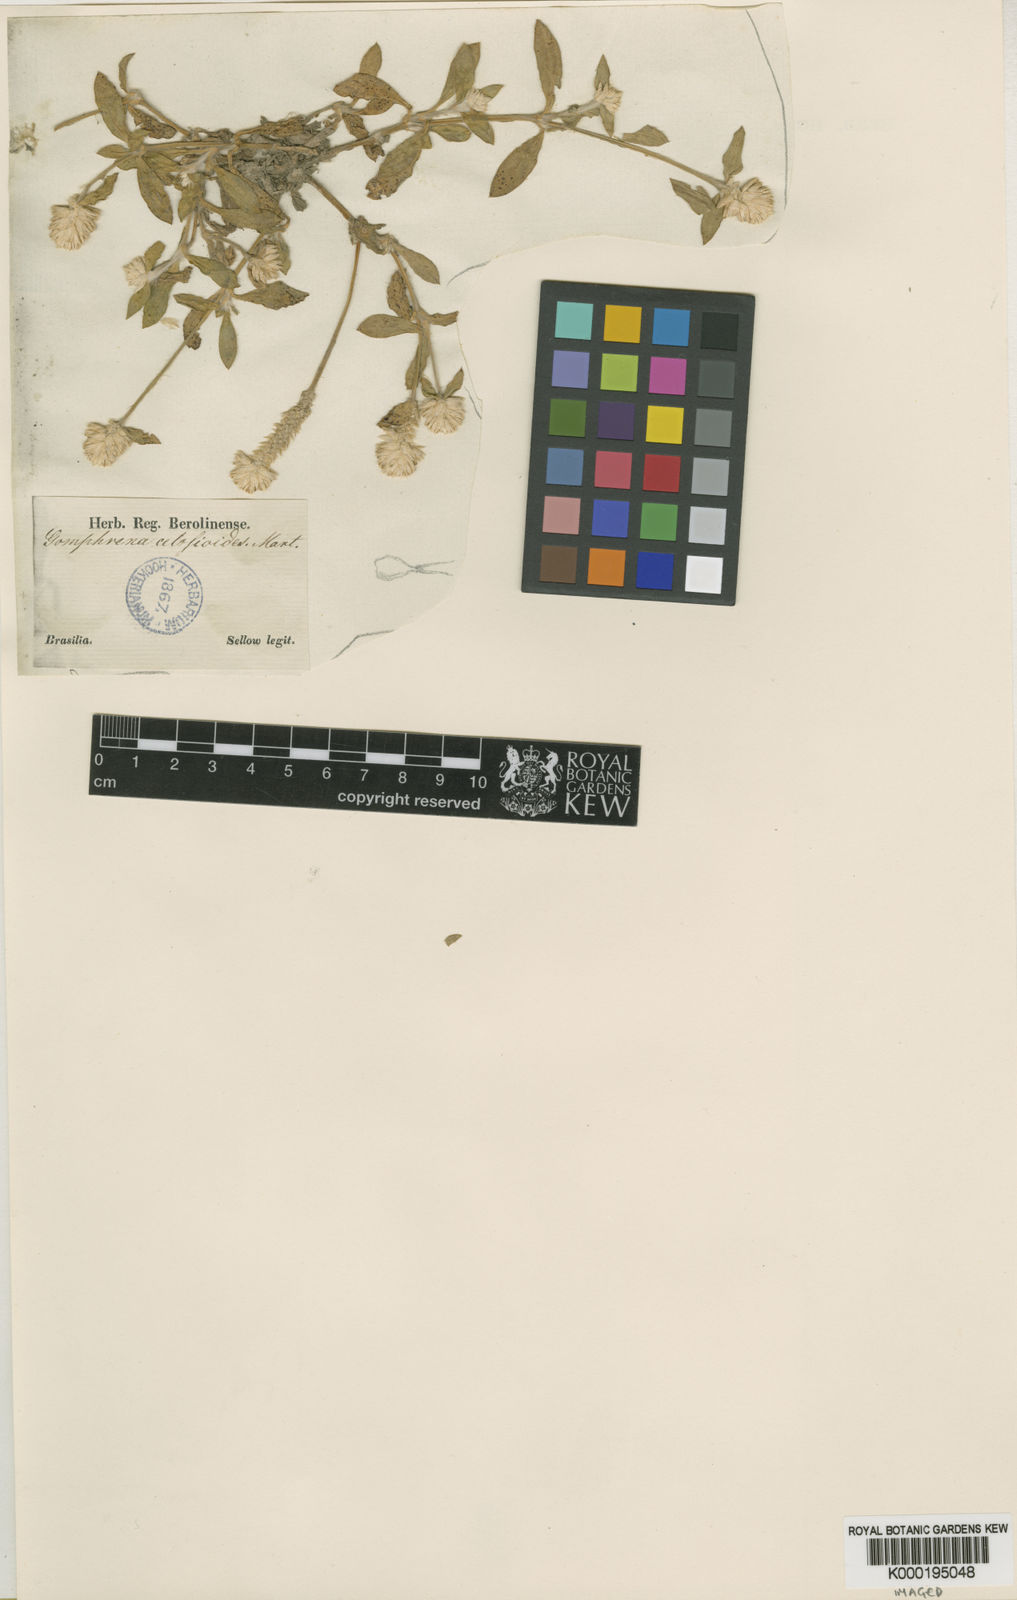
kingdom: Plantae
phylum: Tracheophyta
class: Magnoliopsida
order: Caryophyllales
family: Amaranthaceae
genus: Gomphrena
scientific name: Gomphrena celosioides
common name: Gomphrena-weed
